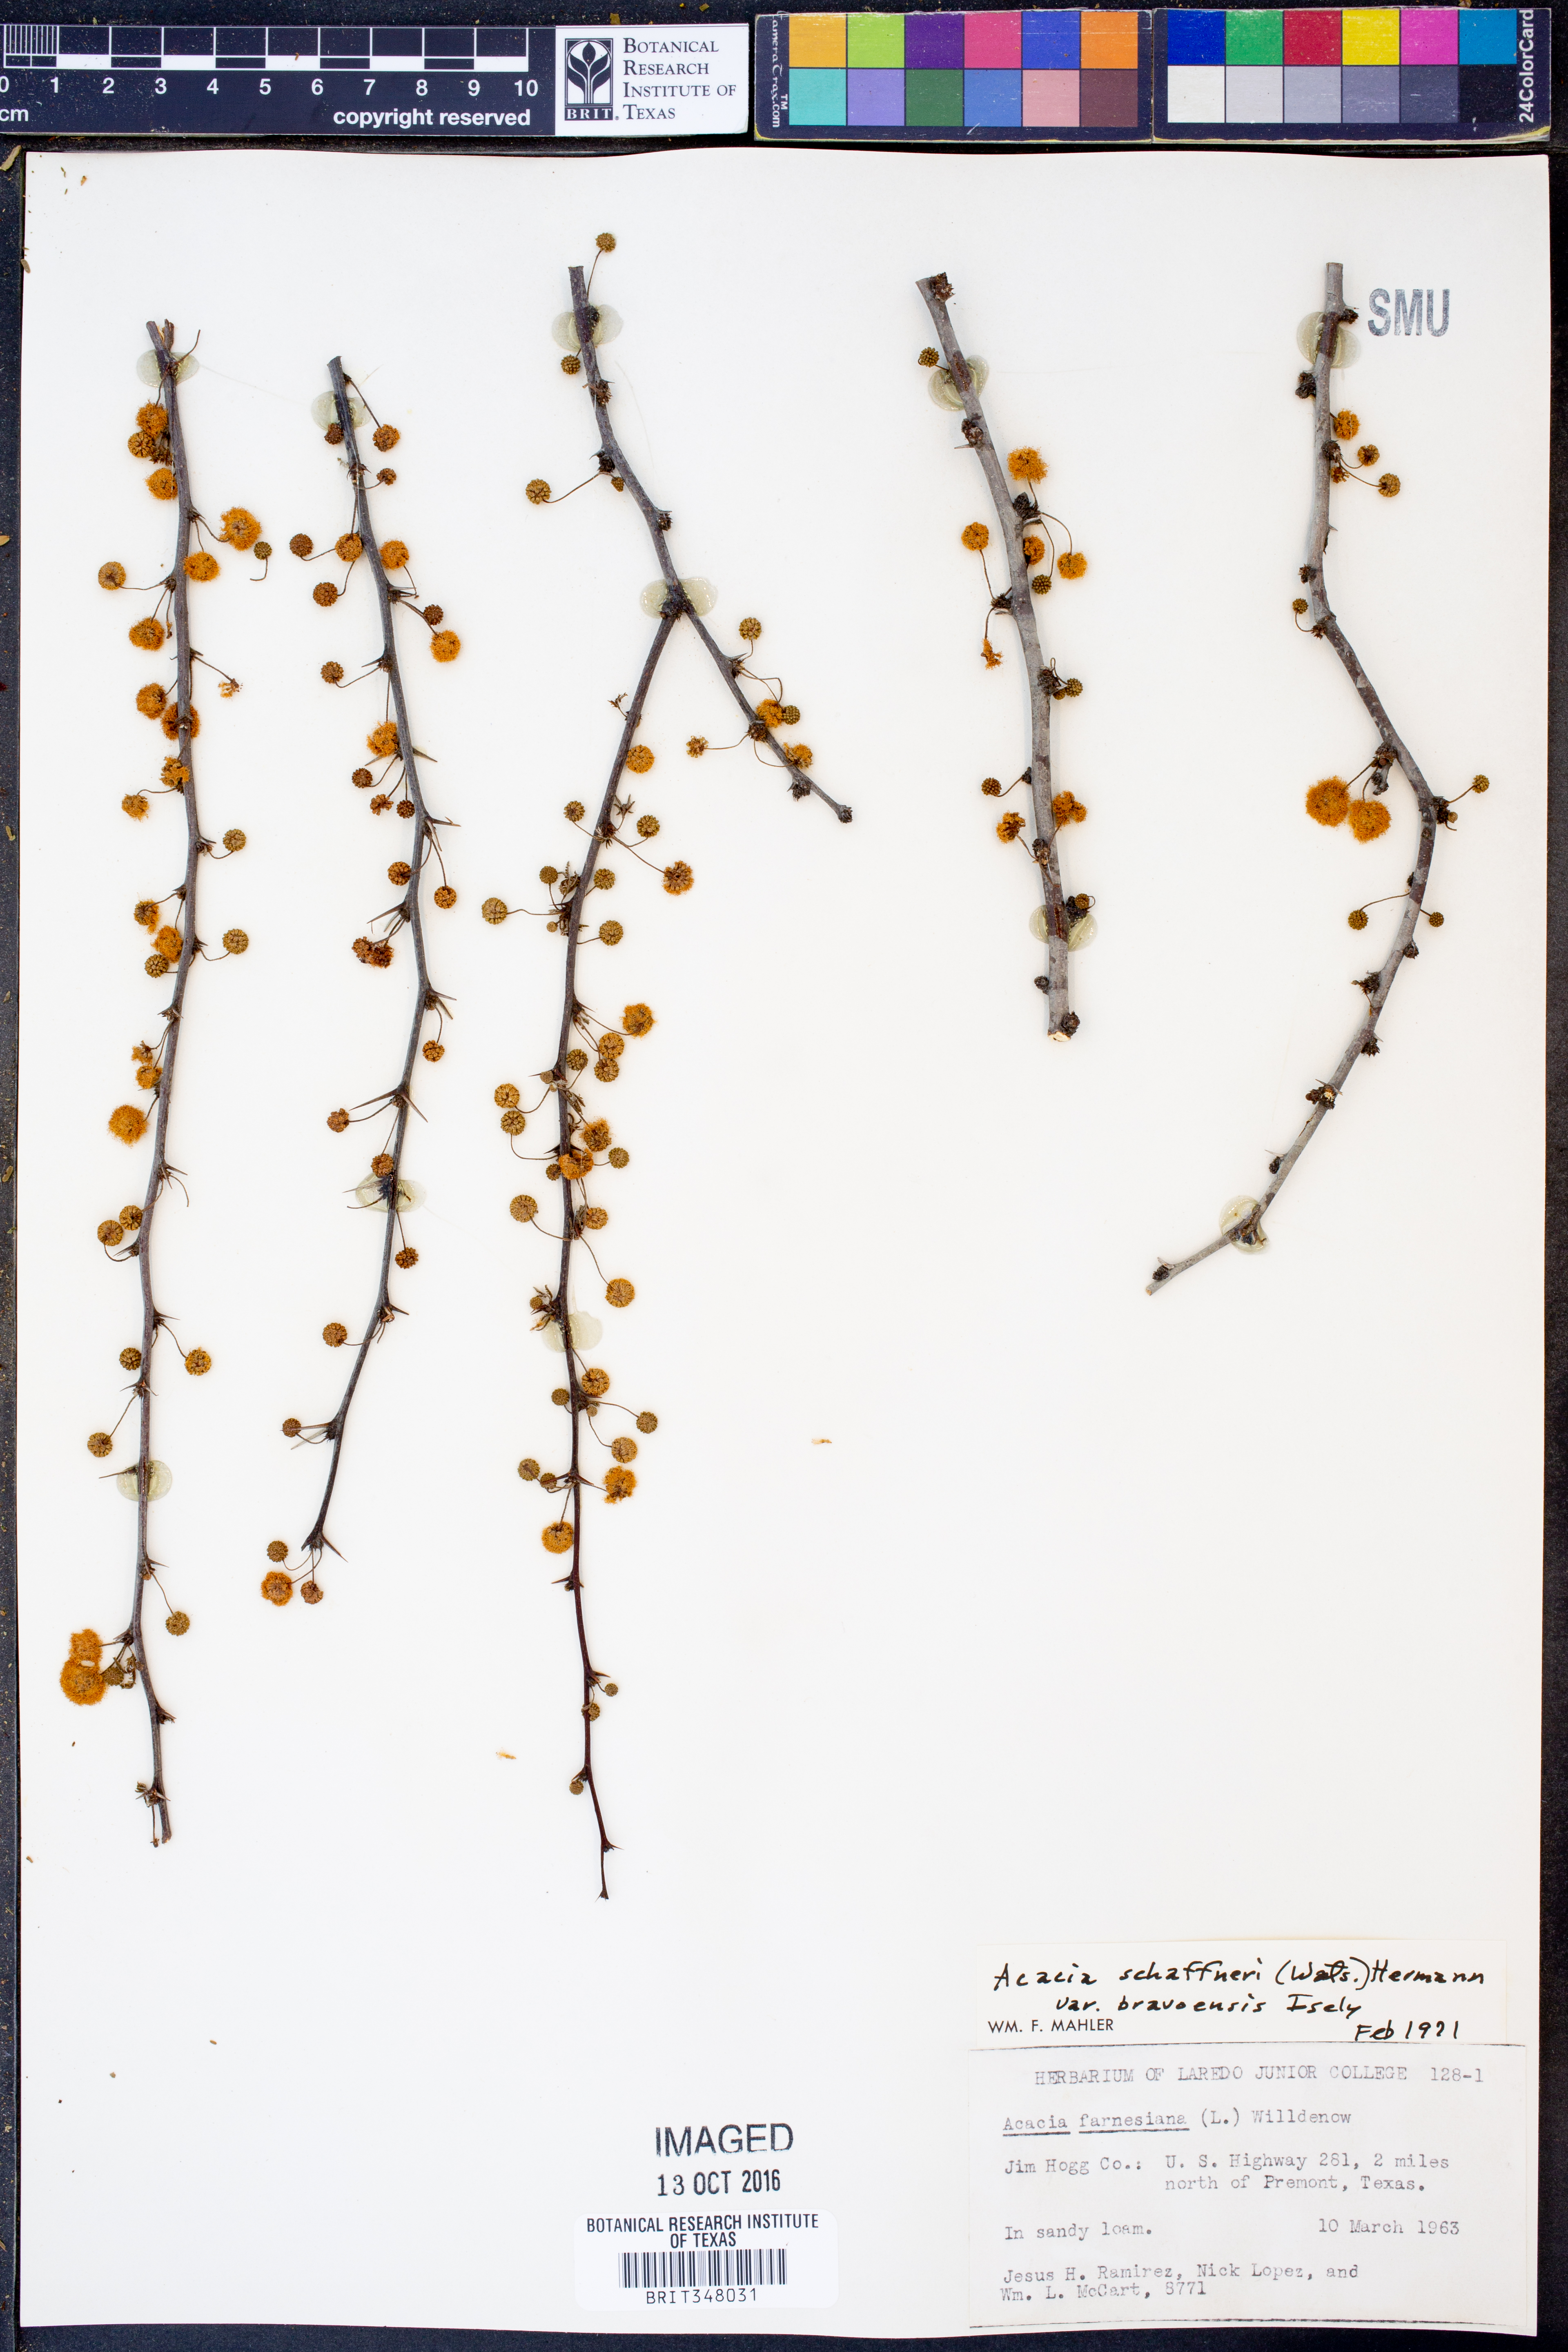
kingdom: Plantae
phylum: Tracheophyta
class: Magnoliopsida
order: Fabales
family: Fabaceae
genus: Vachellia
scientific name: Vachellia bravoensis
